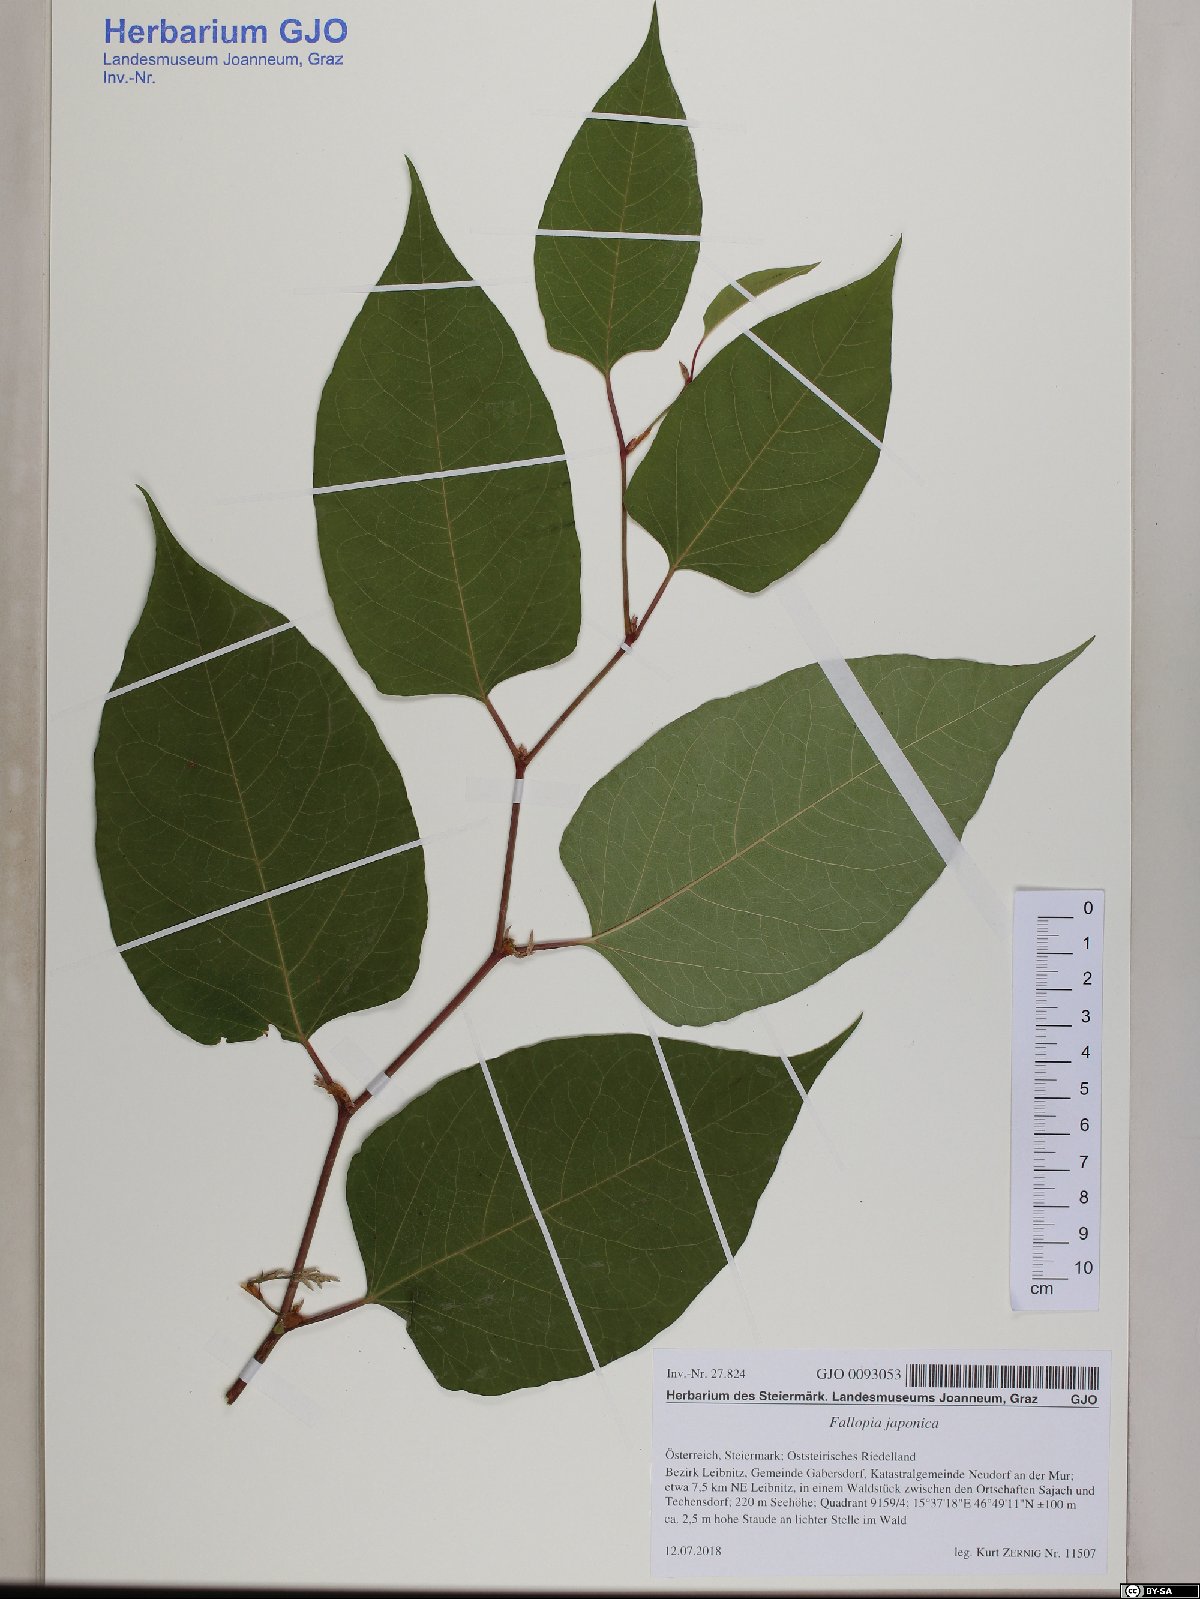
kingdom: Plantae
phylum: Tracheophyta
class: Magnoliopsida
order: Caryophyllales
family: Polygonaceae
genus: Reynoutria
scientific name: Reynoutria japonica
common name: Japanese knotweed
